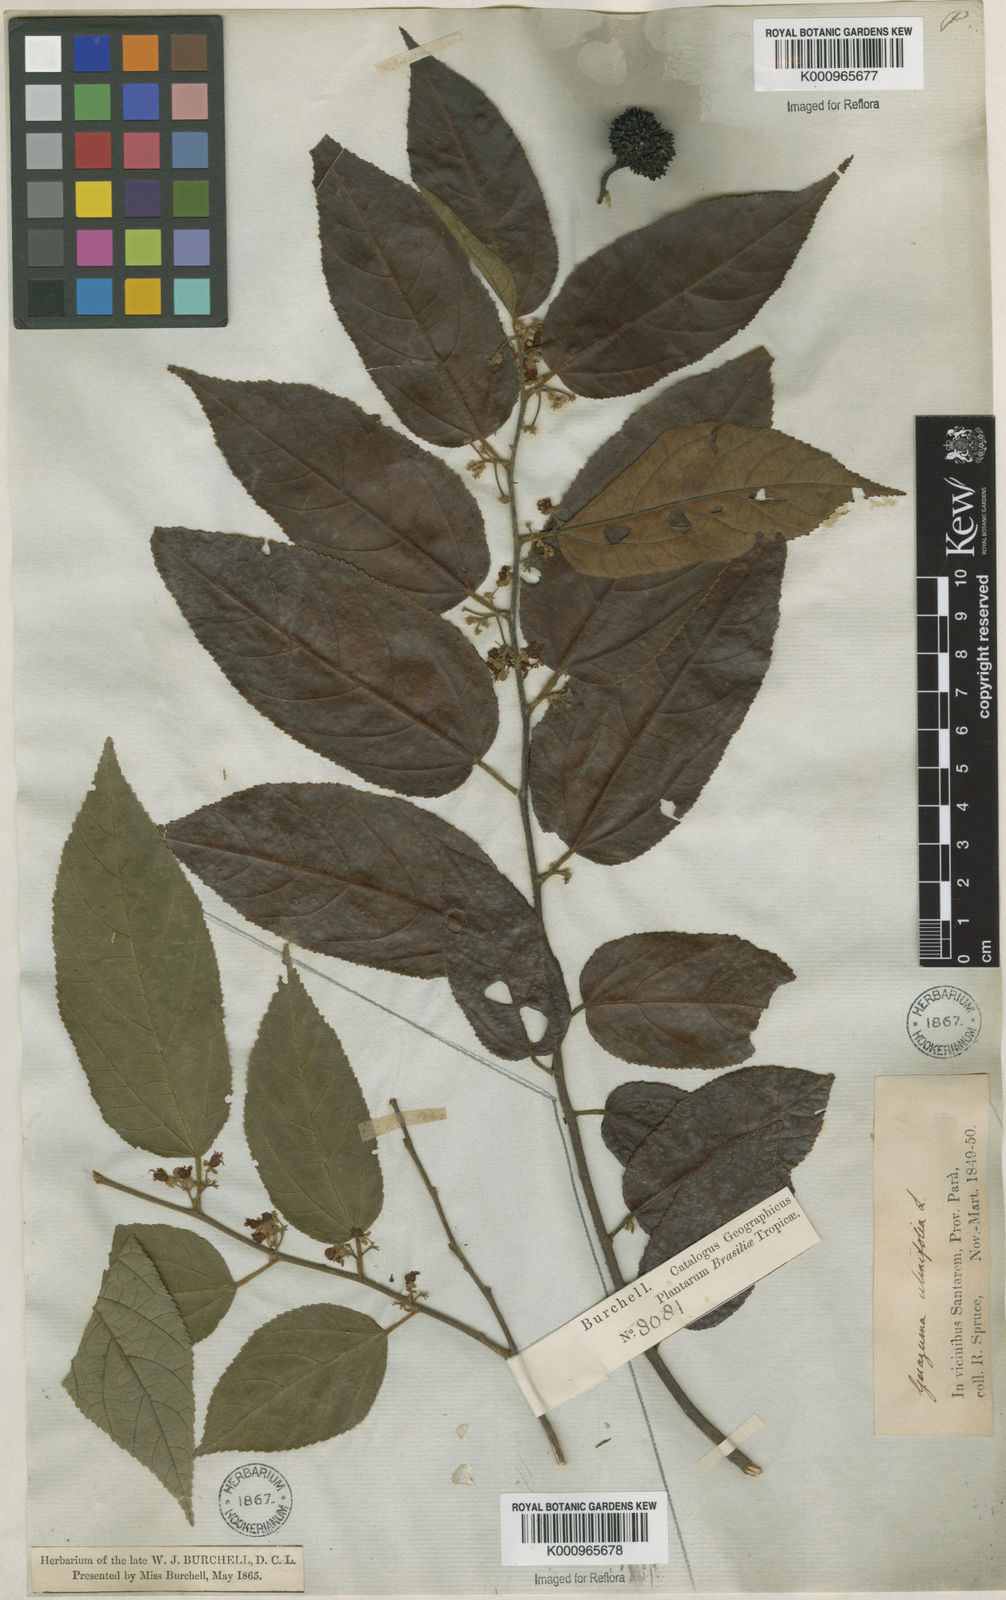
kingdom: Plantae
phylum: Tracheophyta
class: Magnoliopsida
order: Malvales
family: Malvaceae
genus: Guazuma
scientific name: Guazuma ulmifolia
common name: Bastard-cedar
